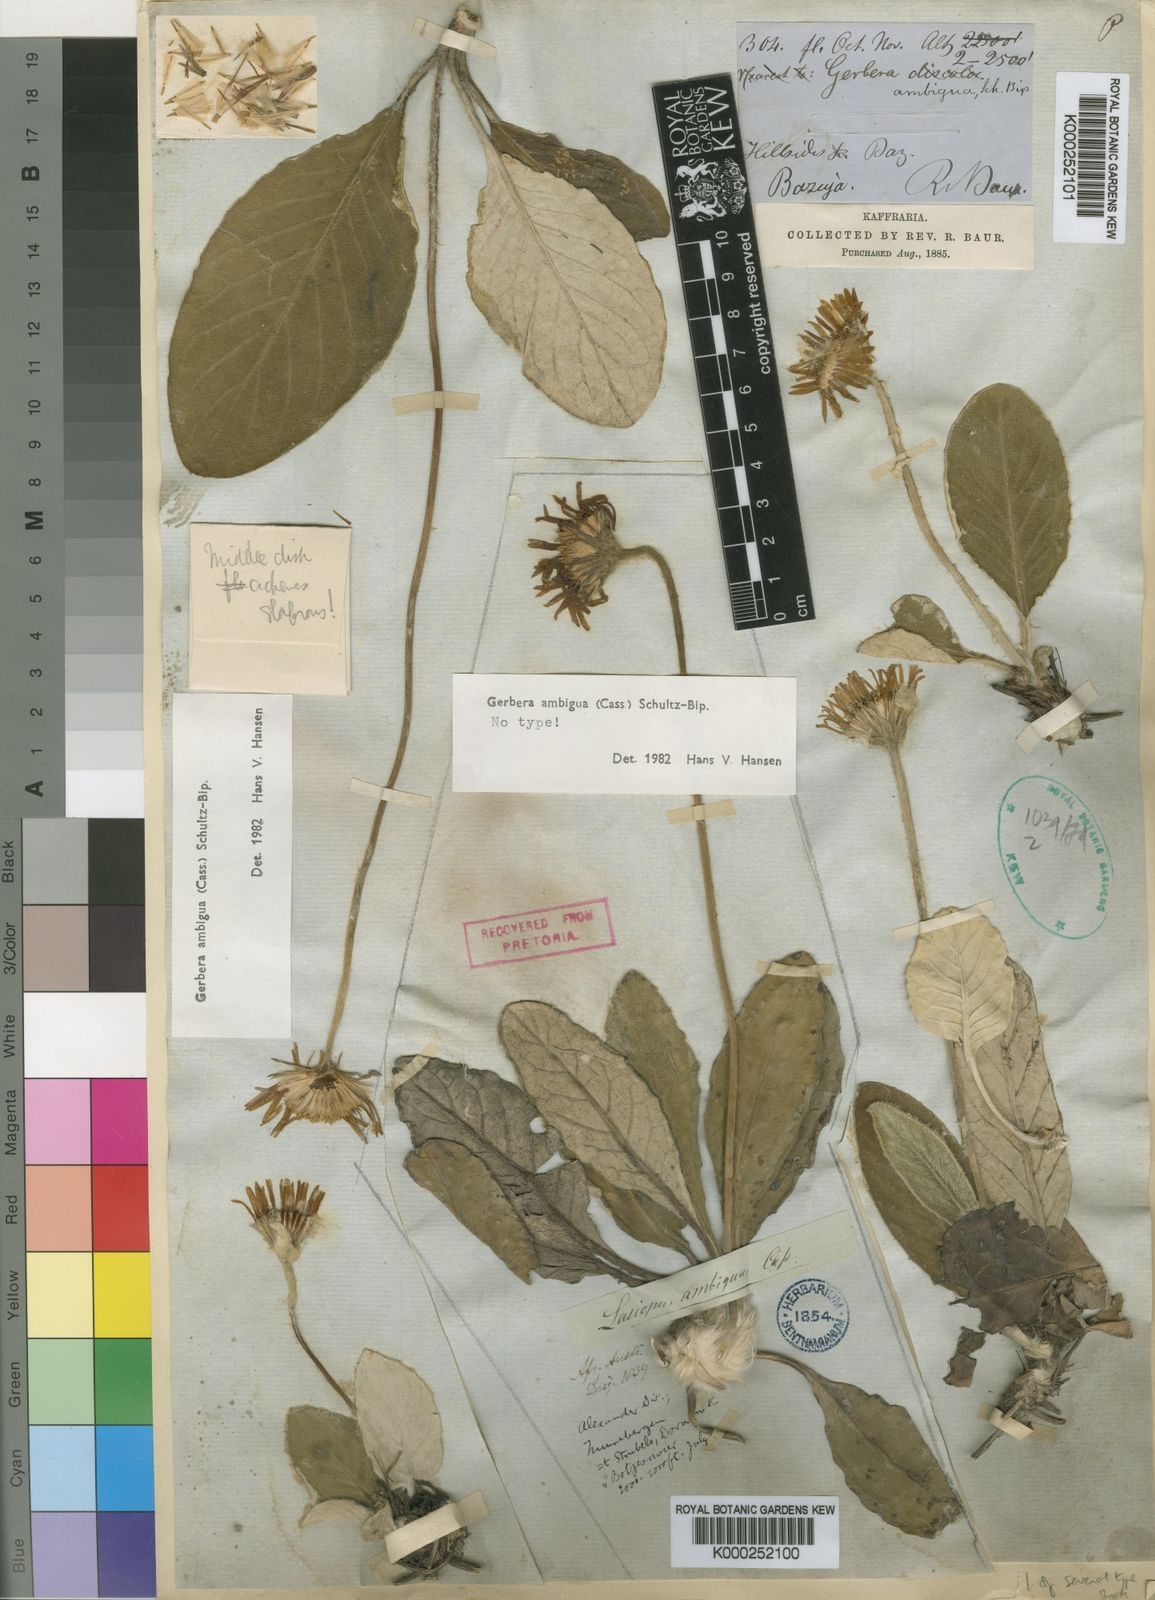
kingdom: Plantae
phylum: Tracheophyta
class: Magnoliopsida
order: Asterales
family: Asteraceae
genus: Gerbera
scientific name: Gerbera ambigua
